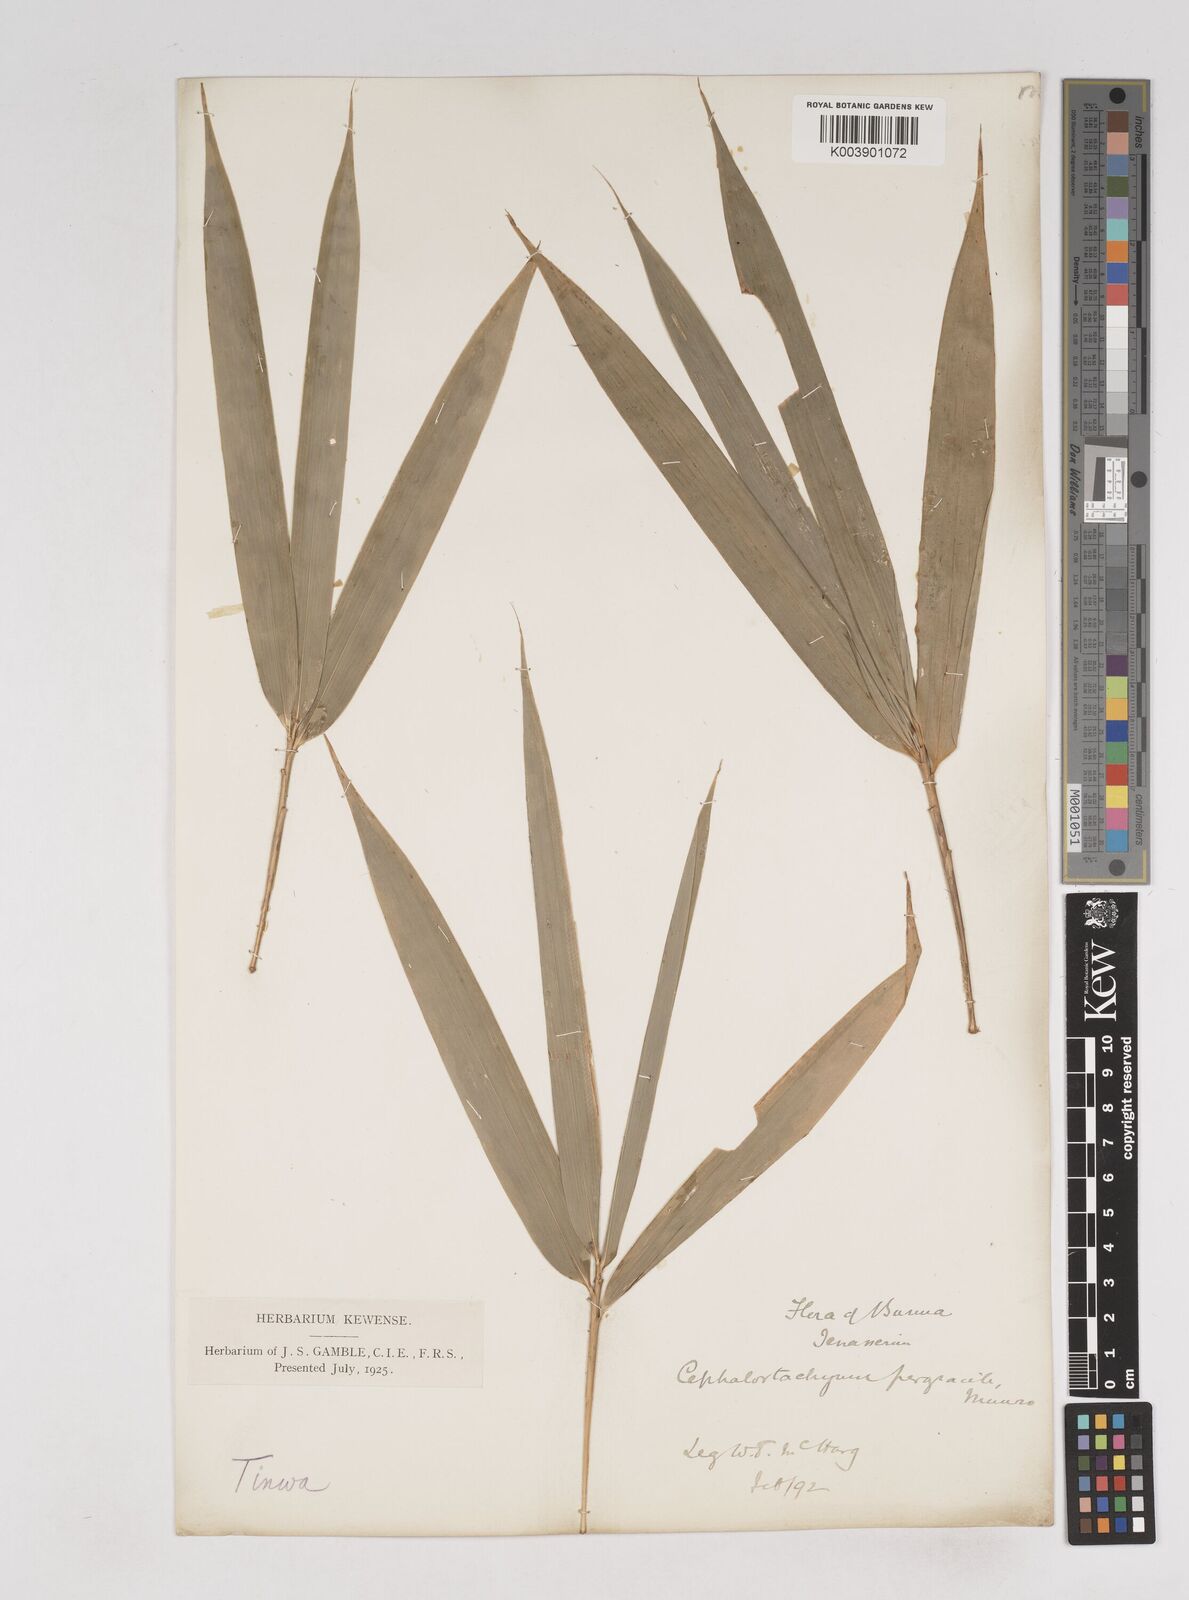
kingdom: Plantae
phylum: Tracheophyta
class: Liliopsida
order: Poales
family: Poaceae
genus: Schizostachyum
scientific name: Schizostachyum pergracile
